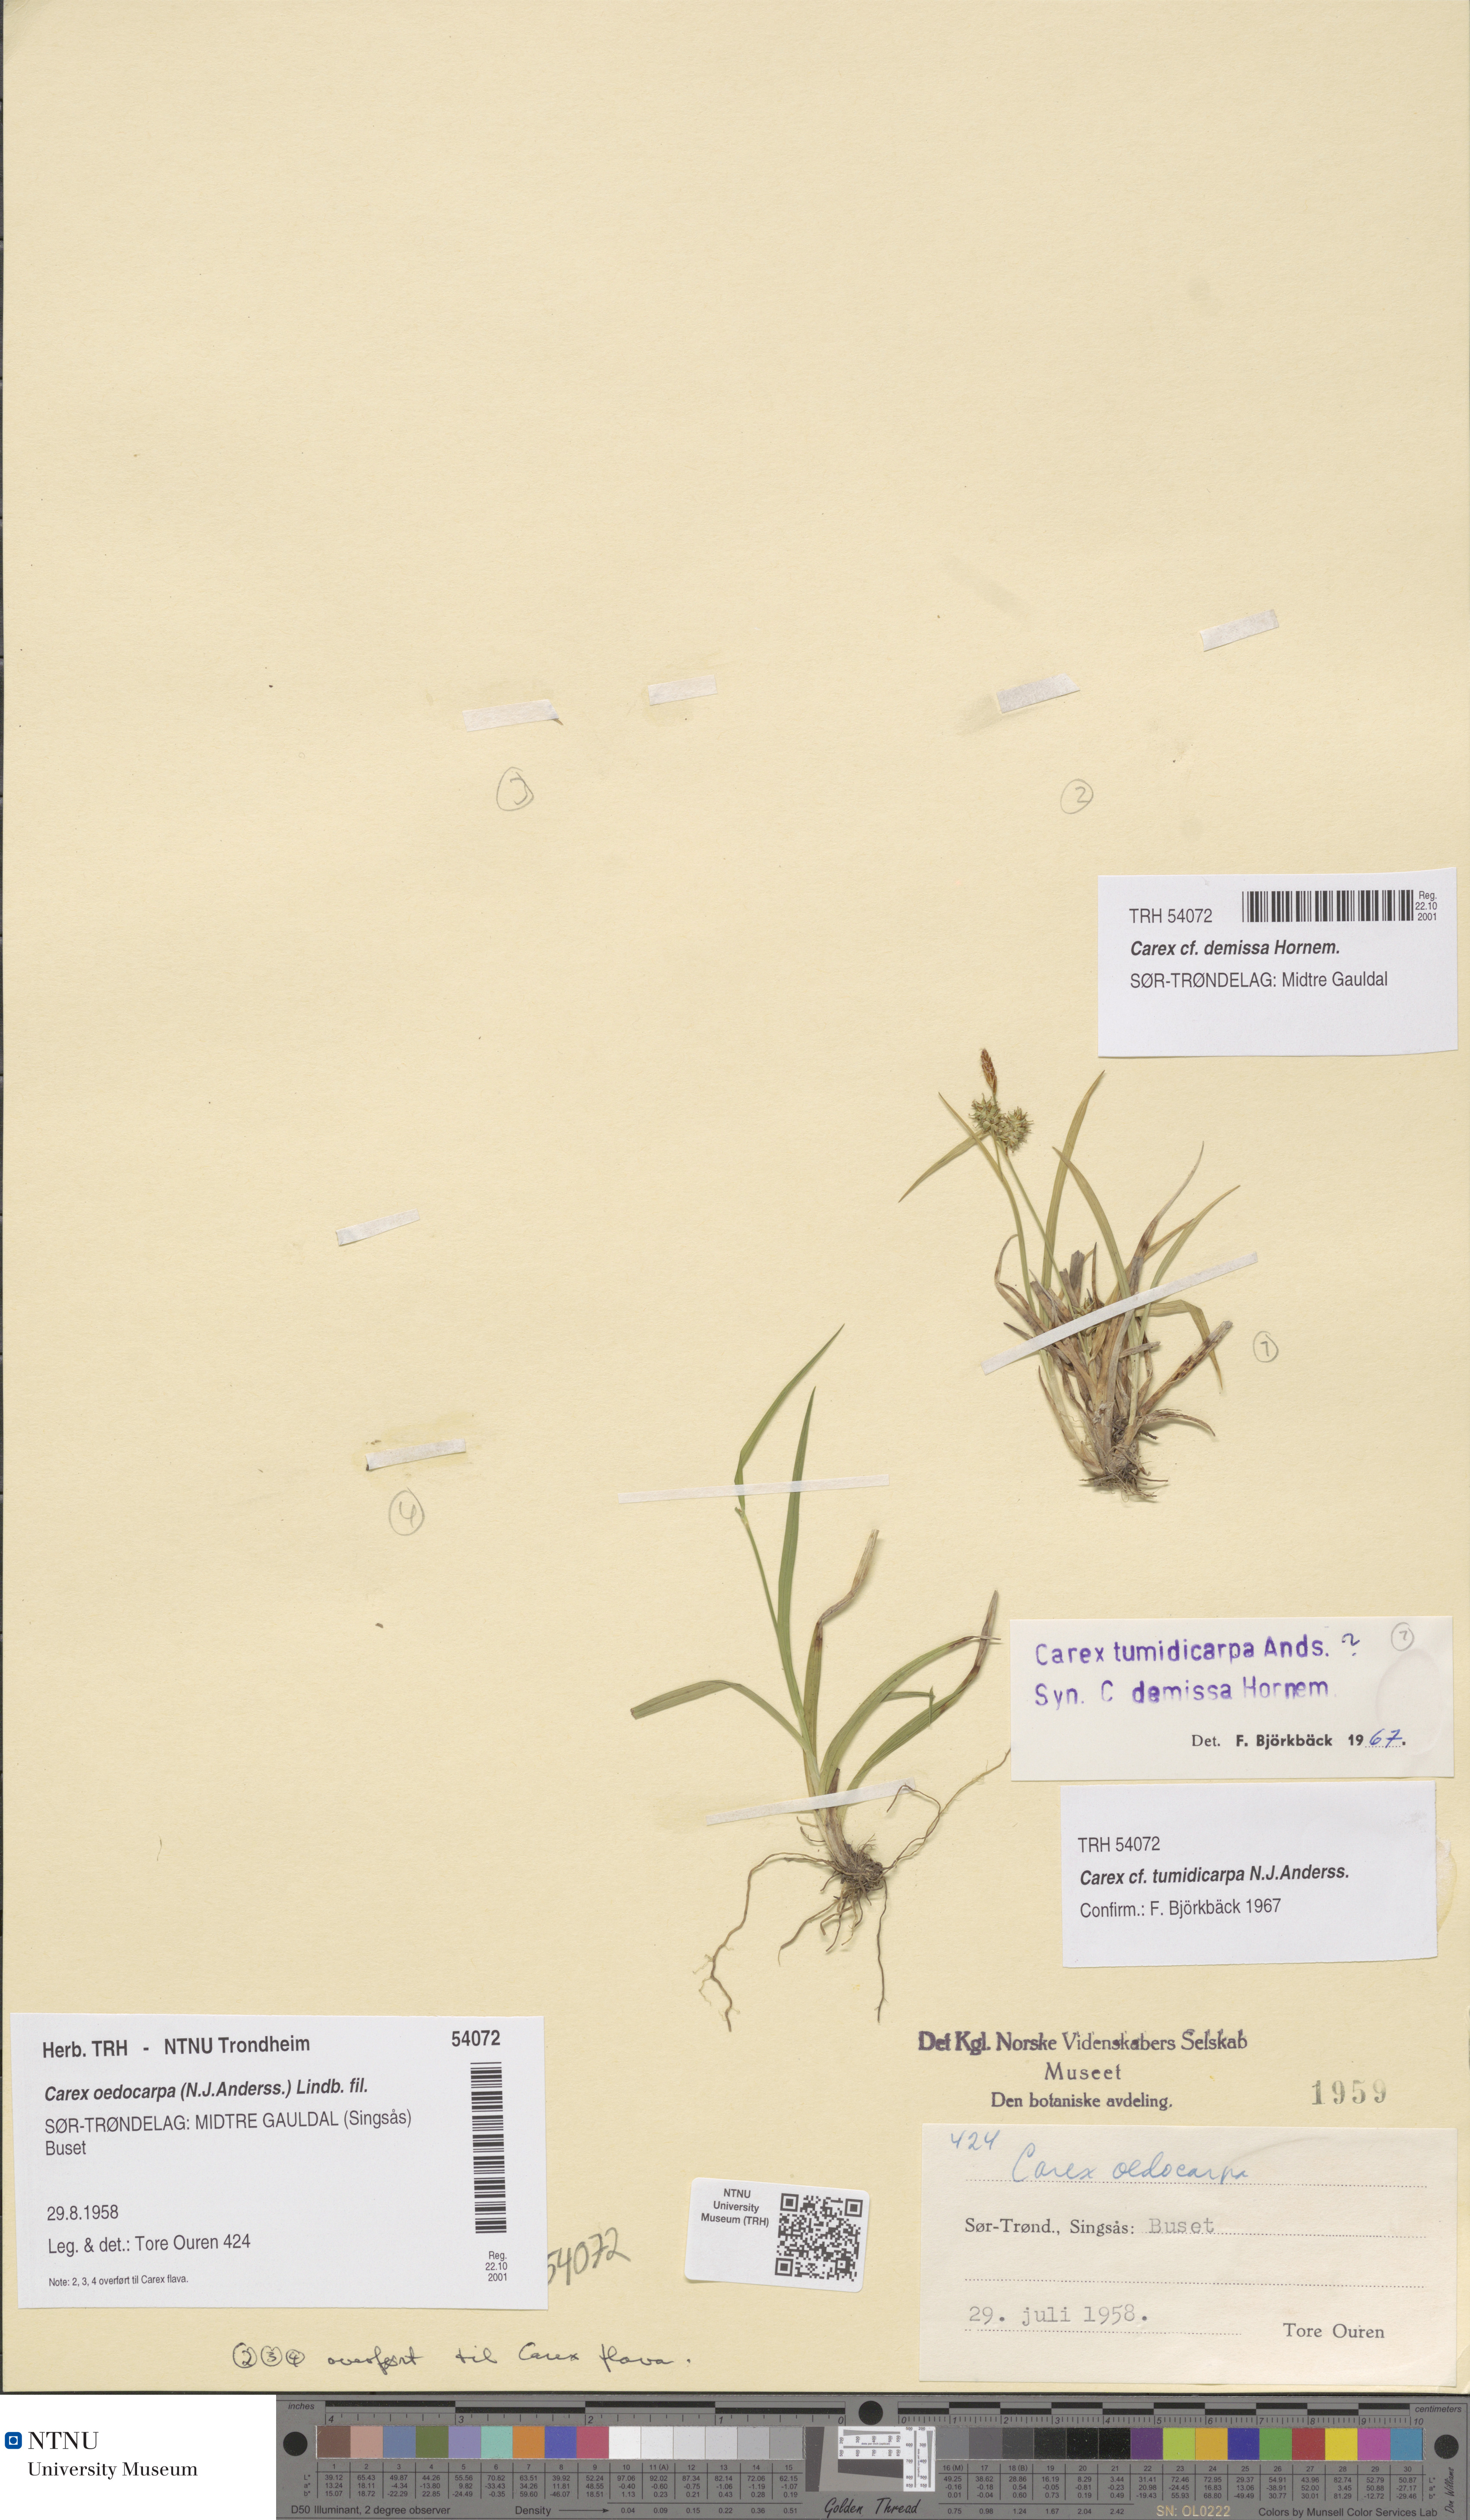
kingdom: Plantae
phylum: Tracheophyta
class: Liliopsida
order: Poales
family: Cyperaceae
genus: Carex
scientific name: Carex demissa
